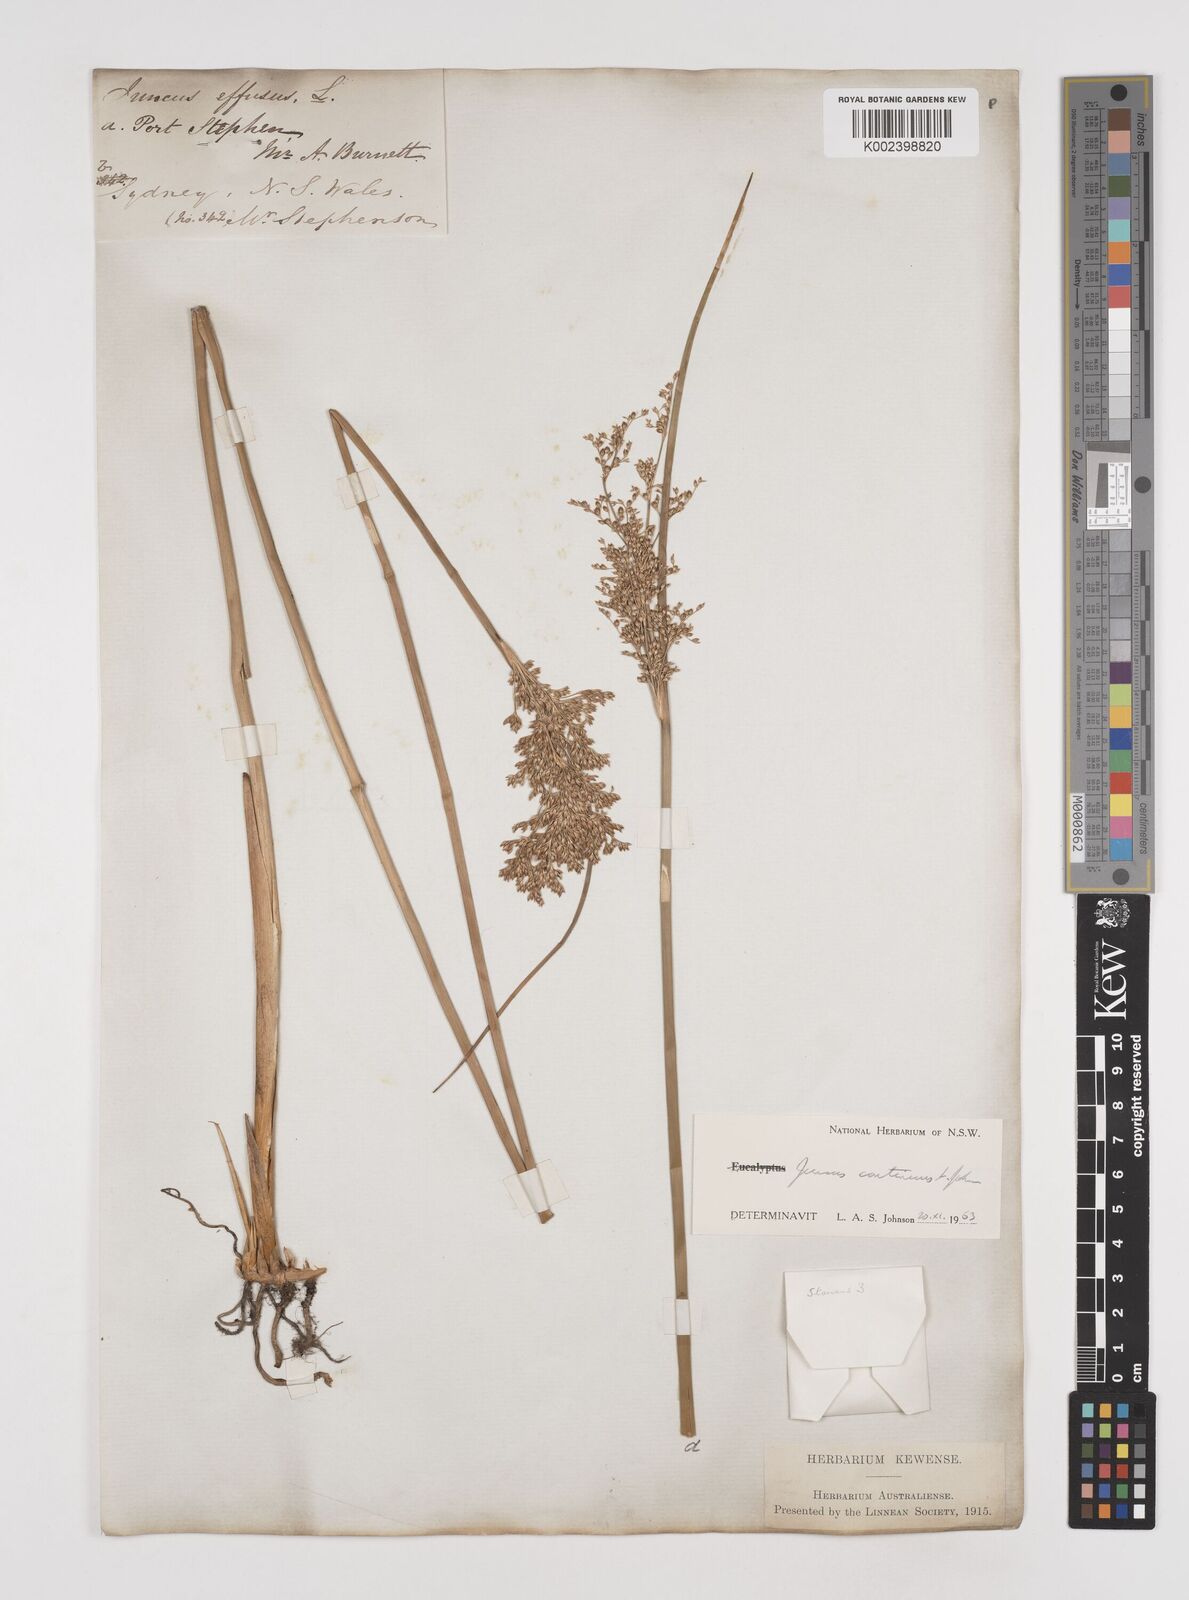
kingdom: Plantae
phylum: Tracheophyta
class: Liliopsida
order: Poales
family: Juncaceae
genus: Juncus
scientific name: Juncus
